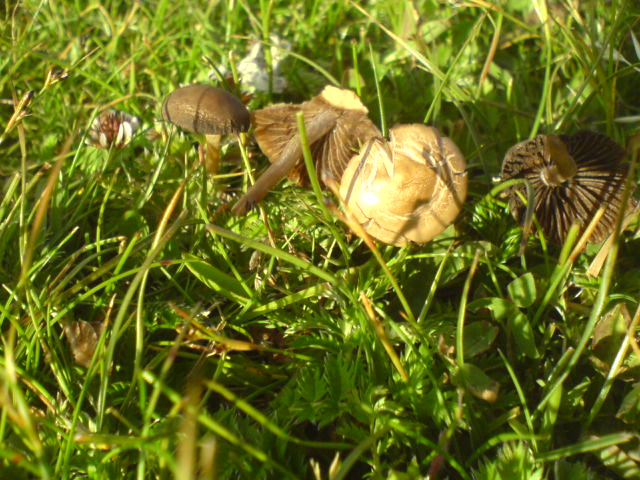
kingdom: Fungi
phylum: Basidiomycota
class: Agaricomycetes
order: Agaricales
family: Bolbitiaceae
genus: Panaeolina
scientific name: Panaeolina foenisecii
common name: høslætsvamp
